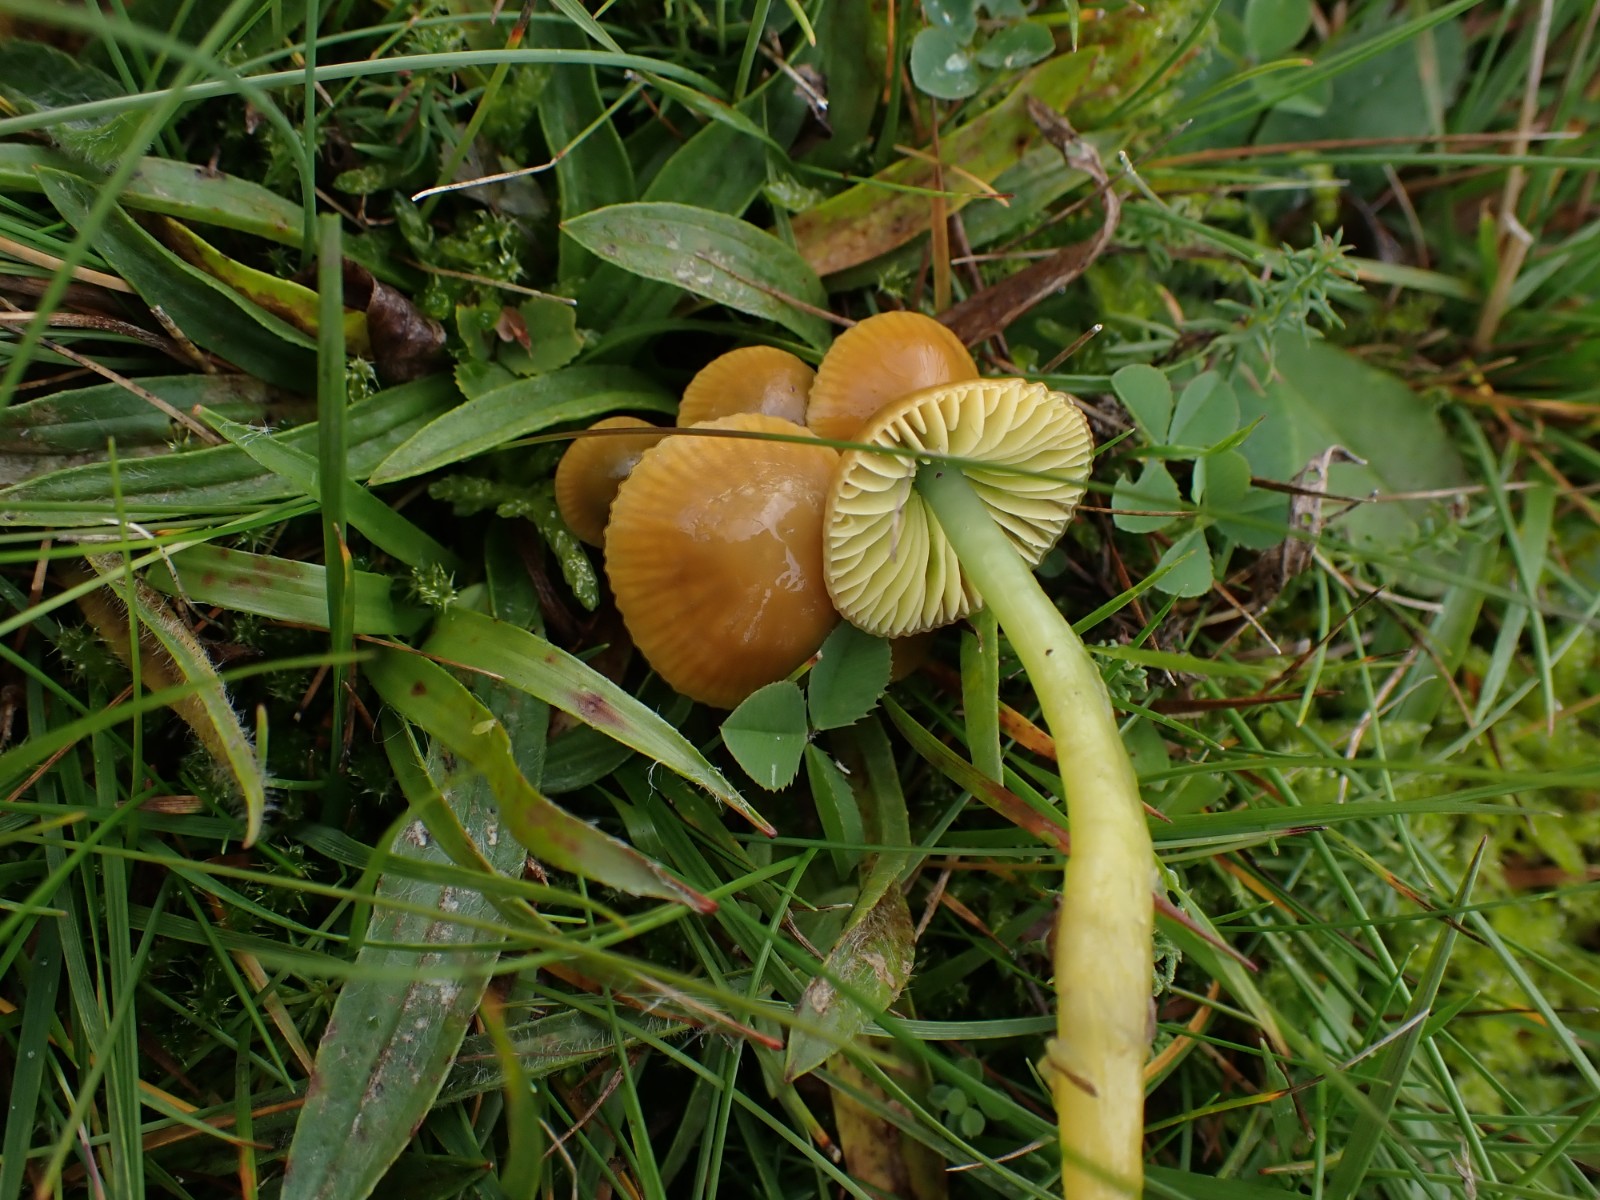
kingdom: Fungi
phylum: Basidiomycota
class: Agaricomycetes
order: Agaricales
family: Hygrophoraceae
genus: Gliophorus
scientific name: Gliophorus psittacinus
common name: papegøje-vokshat
